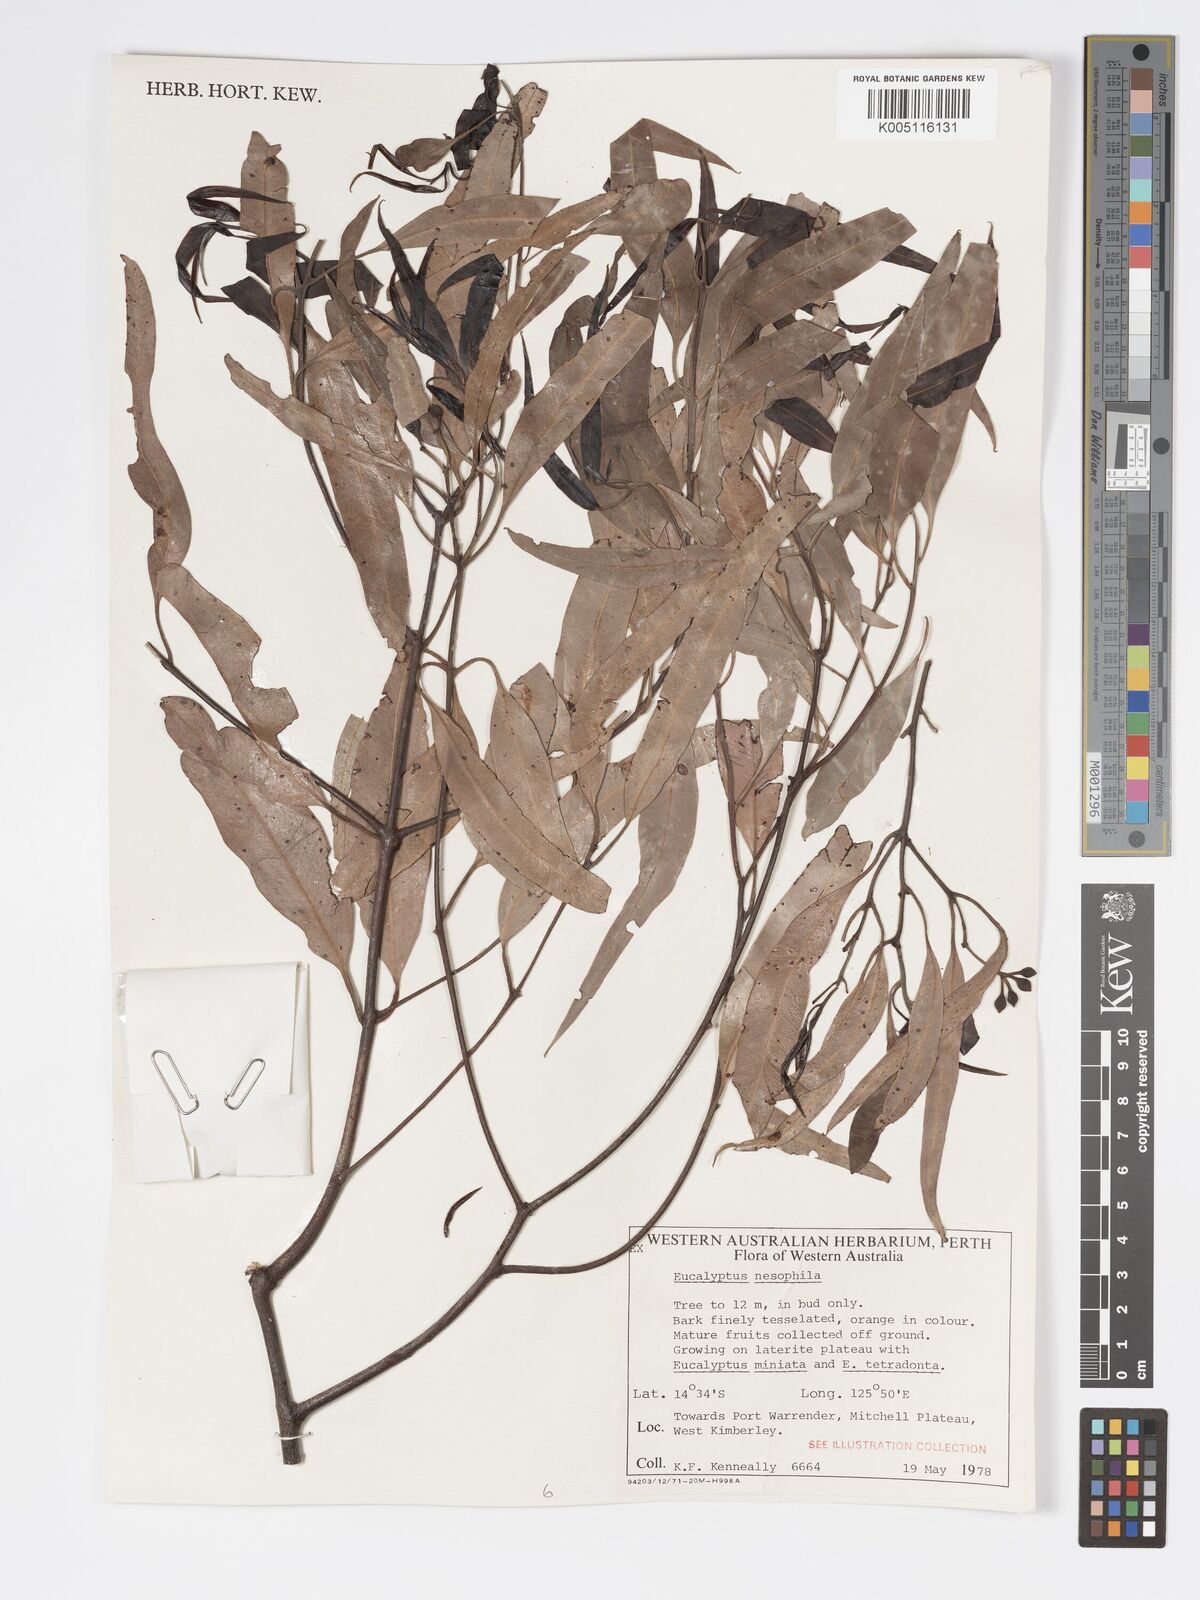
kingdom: Plantae
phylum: Tracheophyta
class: Magnoliopsida
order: Myrtales
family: Myrtaceae
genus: Corymbia
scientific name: Corymbia nesophila
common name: Melville-island-bloodwood
